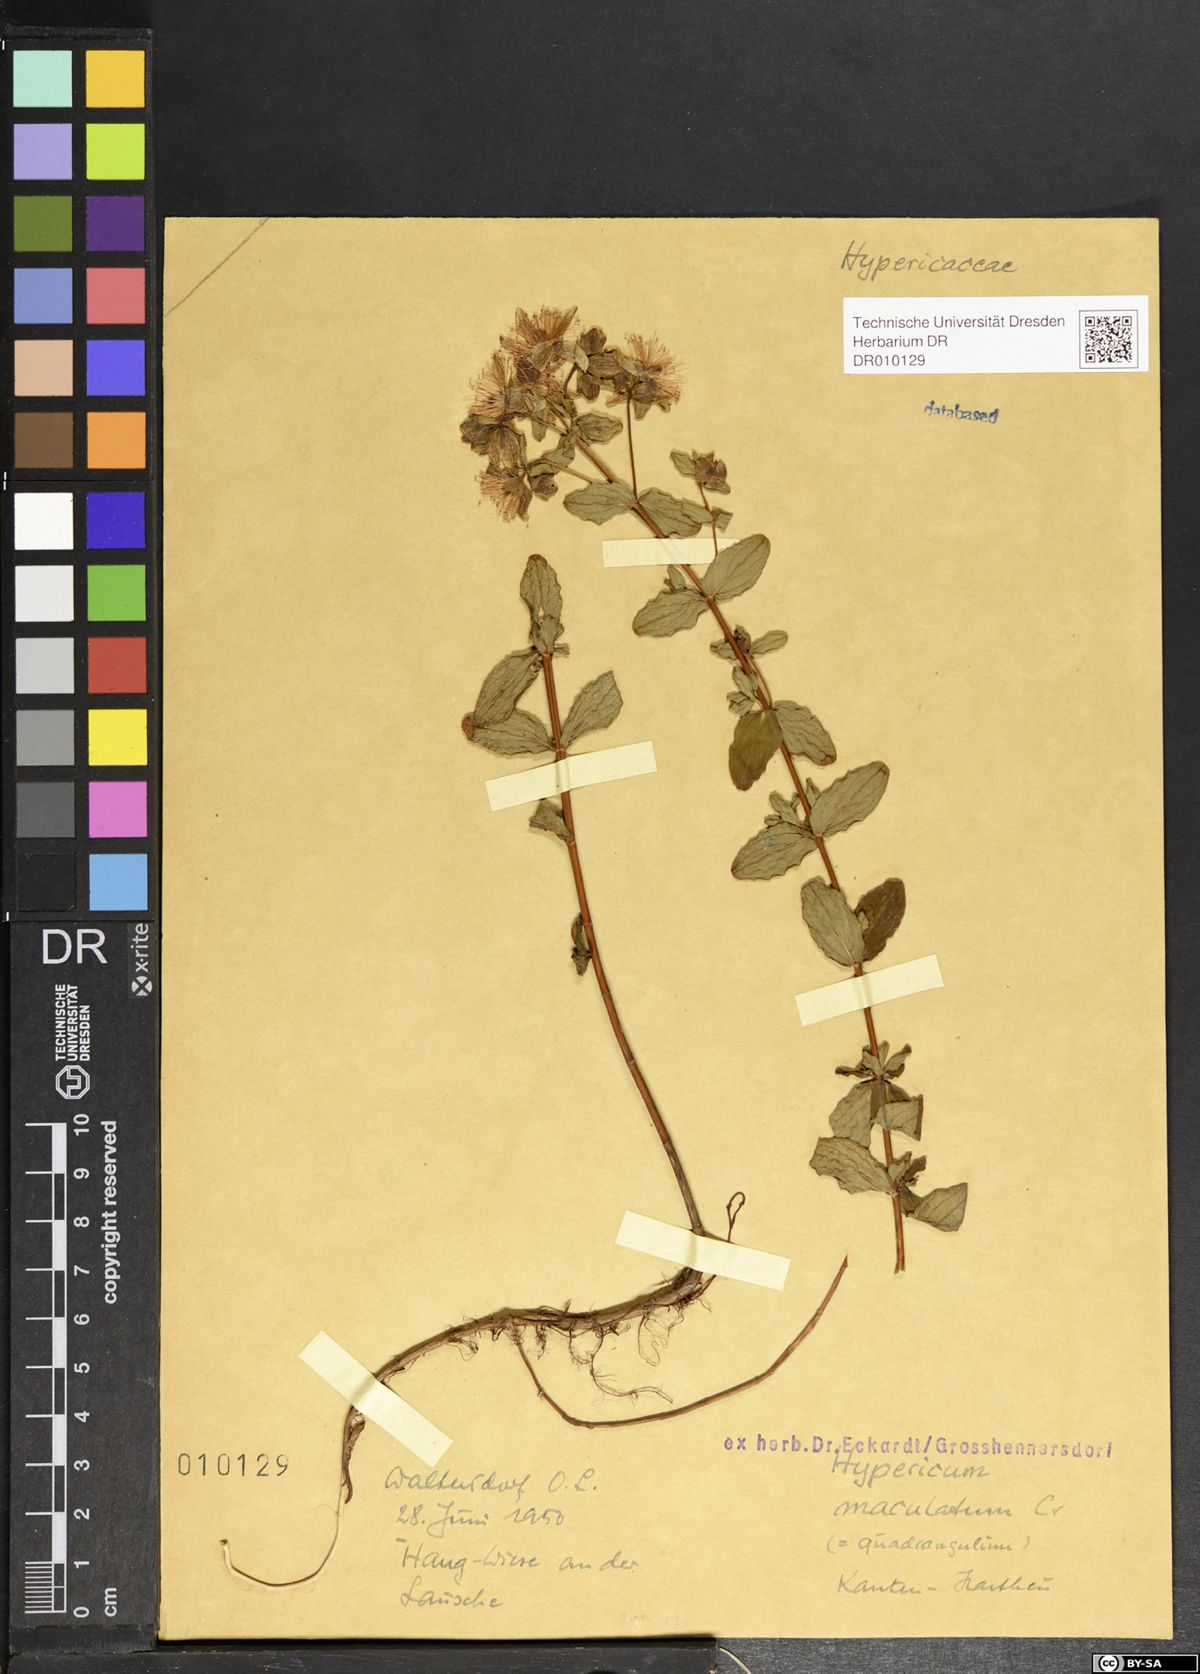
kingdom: Plantae
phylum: Tracheophyta
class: Magnoliopsida
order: Malpighiales
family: Hypericaceae
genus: Hypericum
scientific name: Hypericum maculatum
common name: Imperforate st. john's-wort
